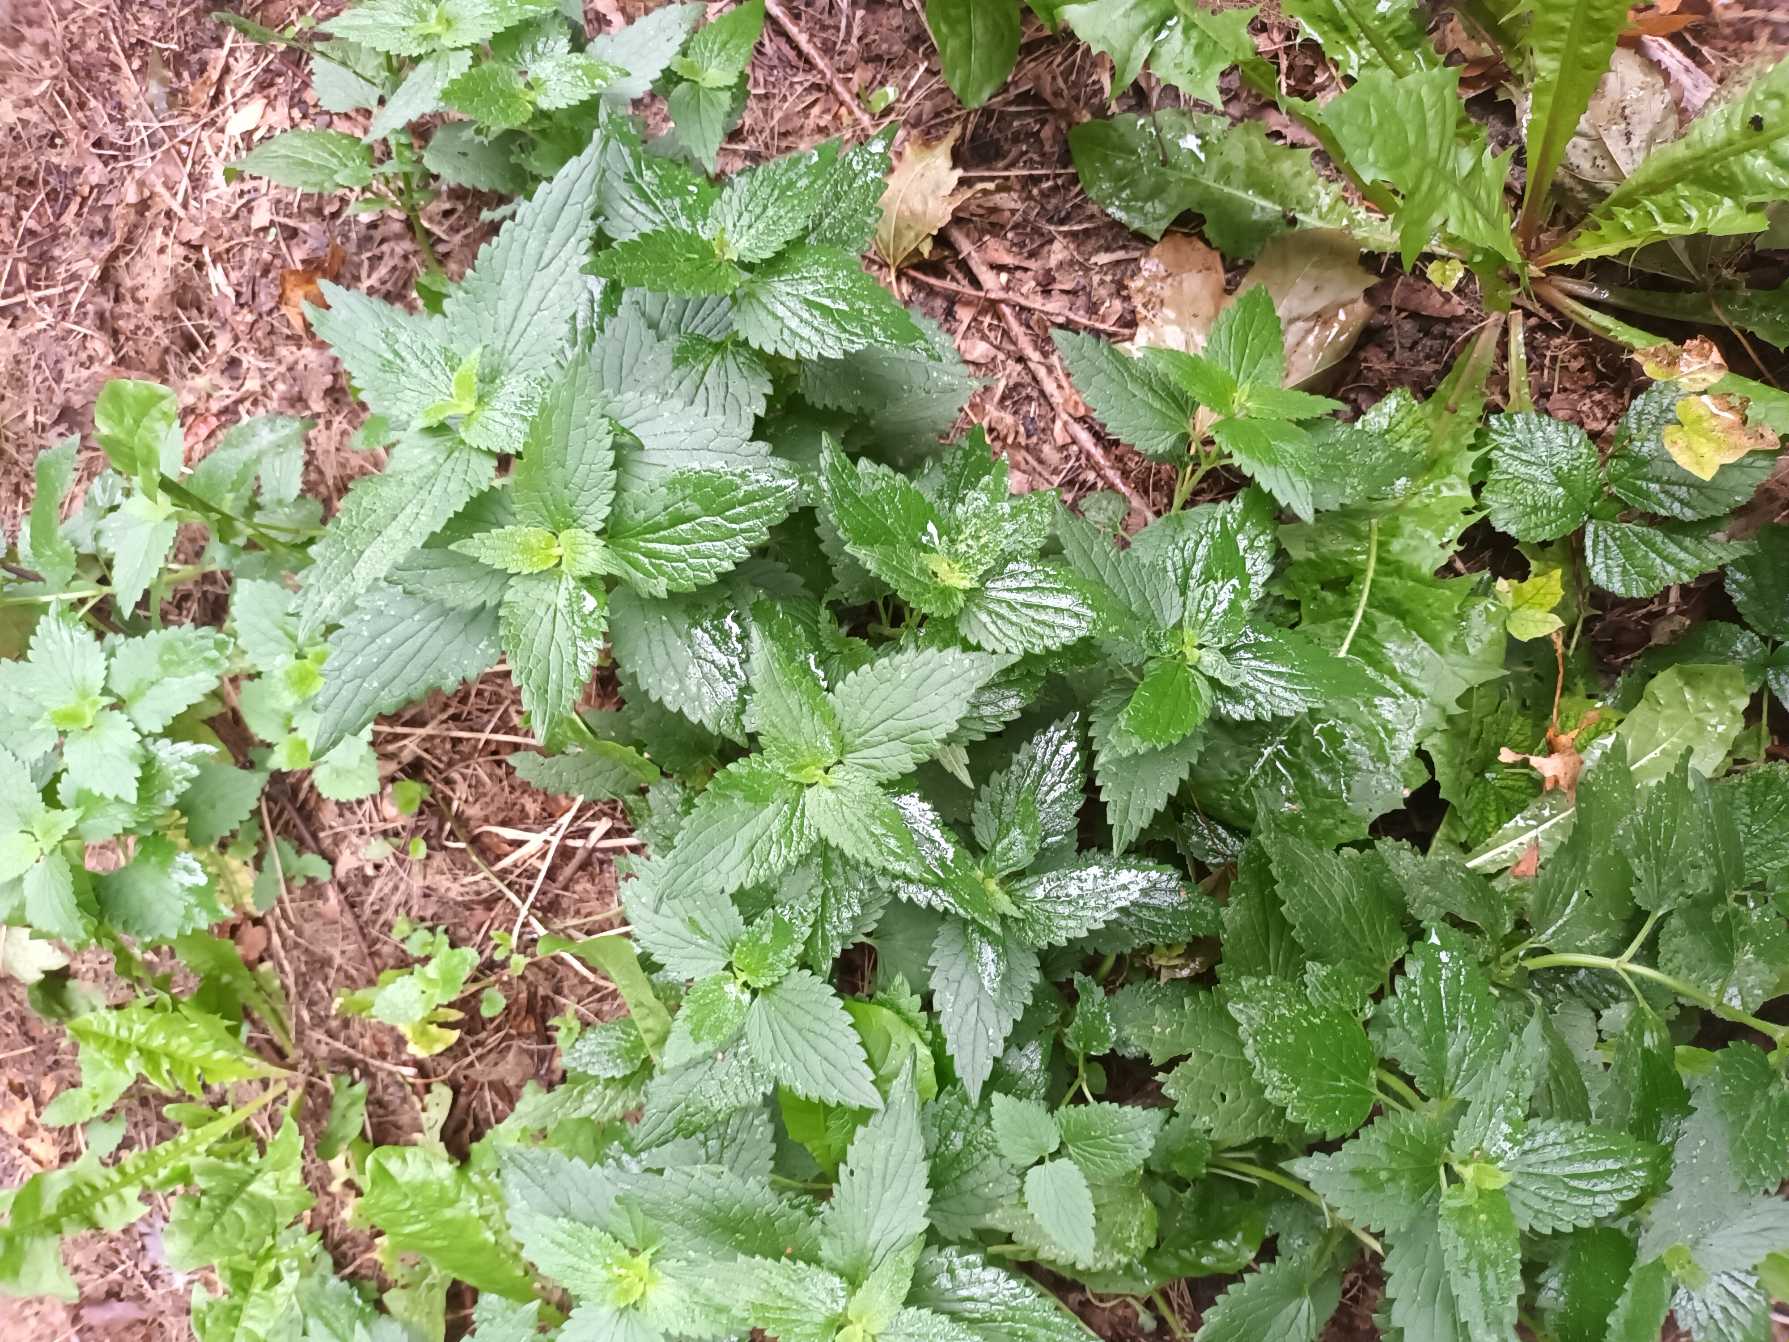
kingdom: Plantae
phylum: Tracheophyta
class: Magnoliopsida
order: Rosales
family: Urticaceae
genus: Urtica
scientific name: Urtica dioica
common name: Stor nælde
